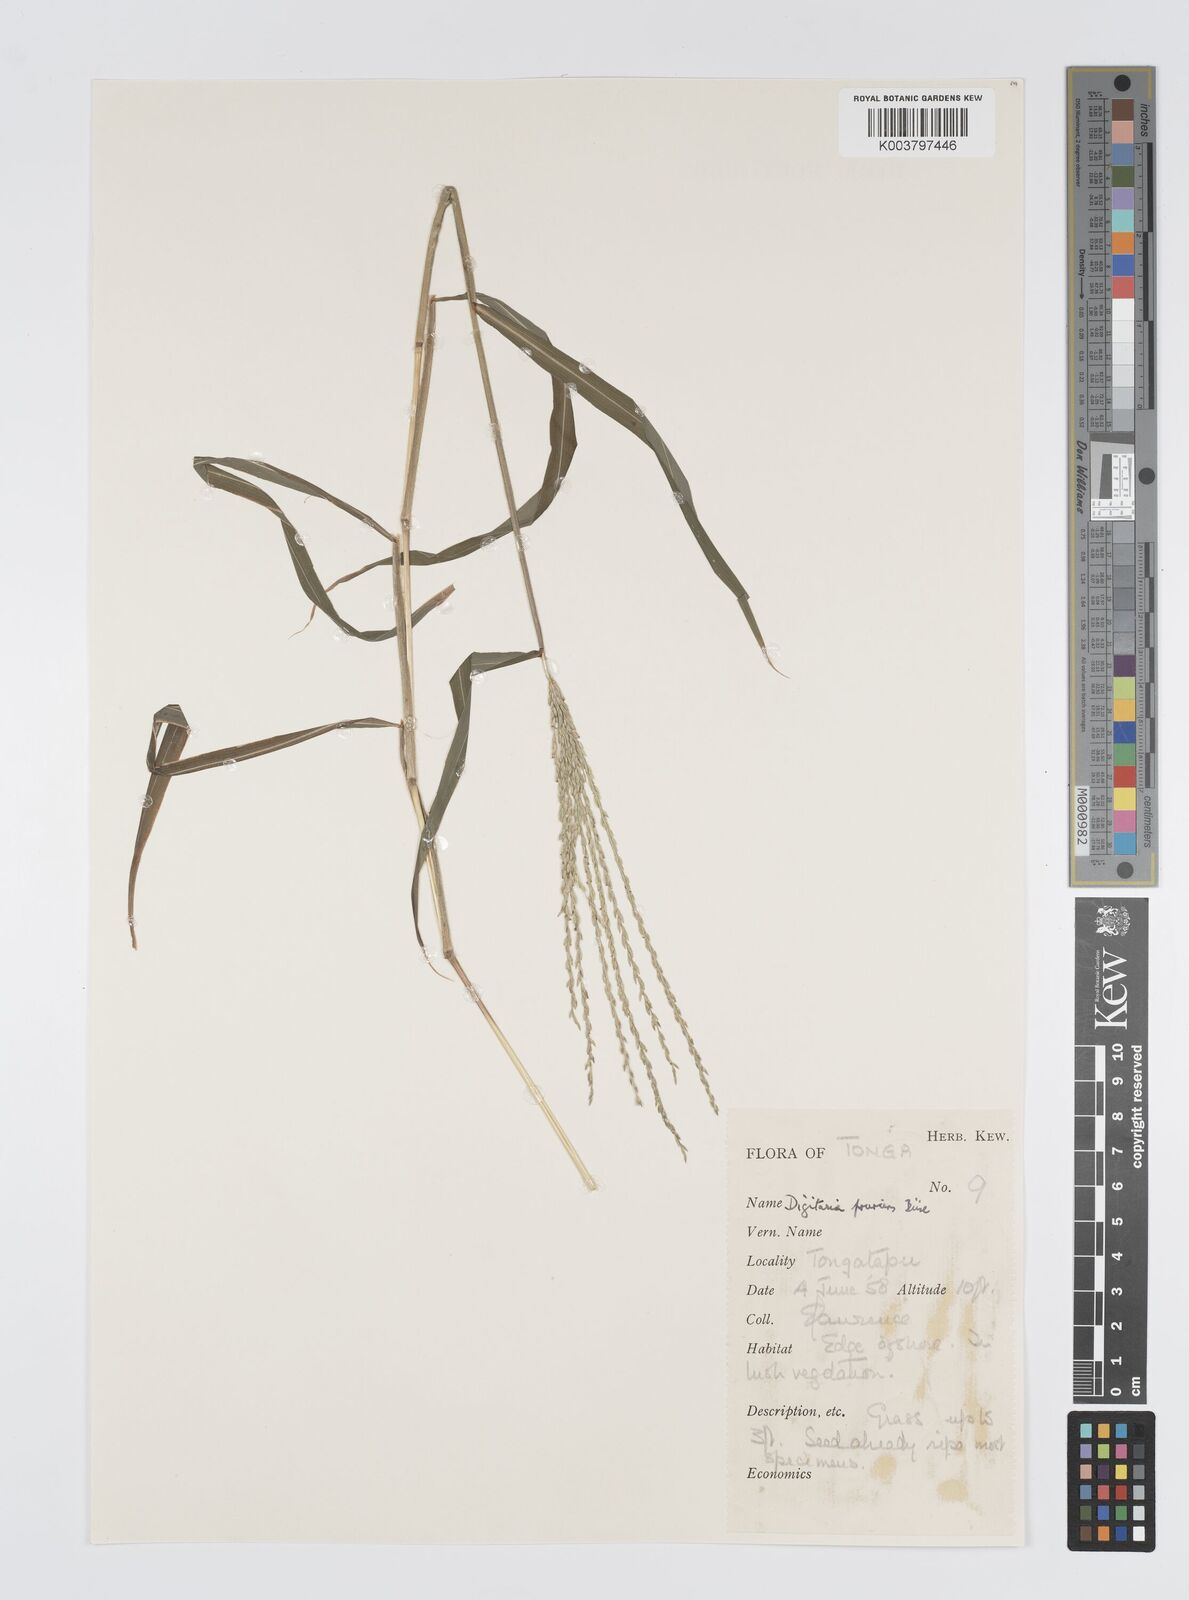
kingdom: Plantae
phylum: Tracheophyta
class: Liliopsida
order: Poales
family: Poaceae
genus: Digitaria
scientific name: Digitaria setigera
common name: East indian crabgrass
